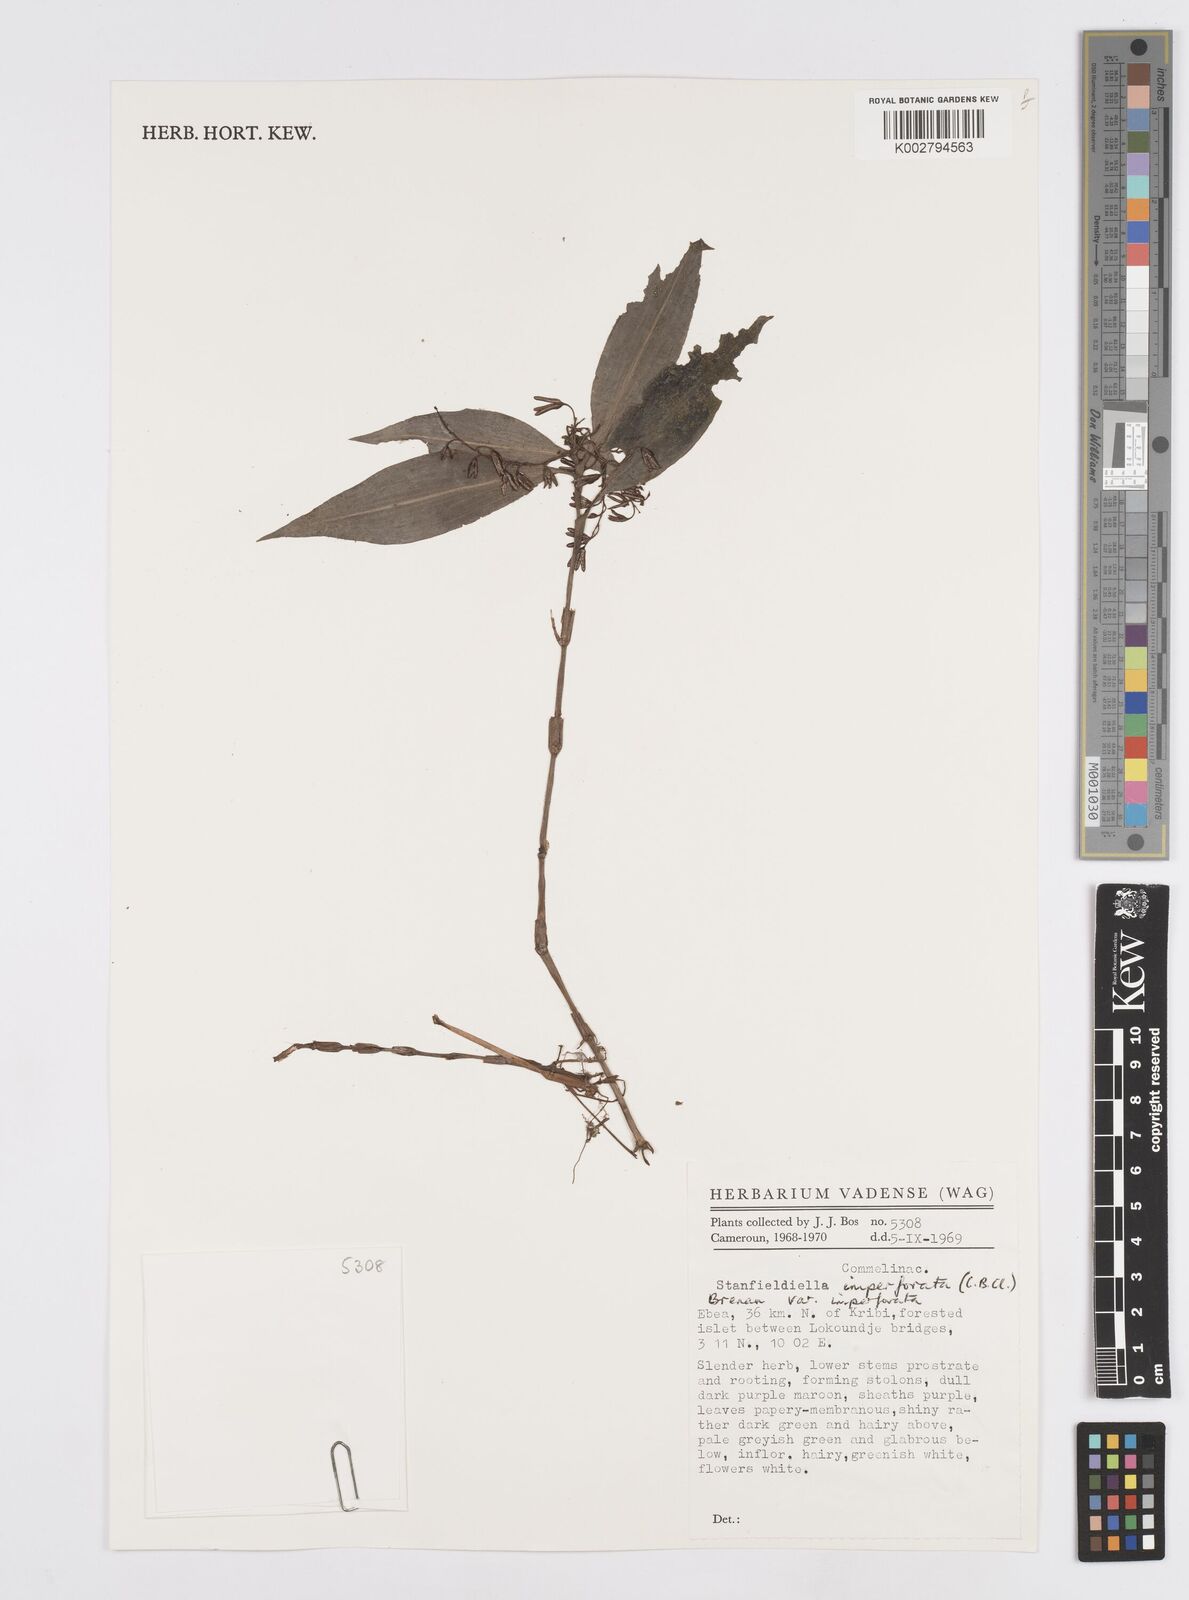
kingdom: Plantae
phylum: Tracheophyta
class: Liliopsida
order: Commelinales
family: Commelinaceae
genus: Stanfieldiella
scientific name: Stanfieldiella imperforata
